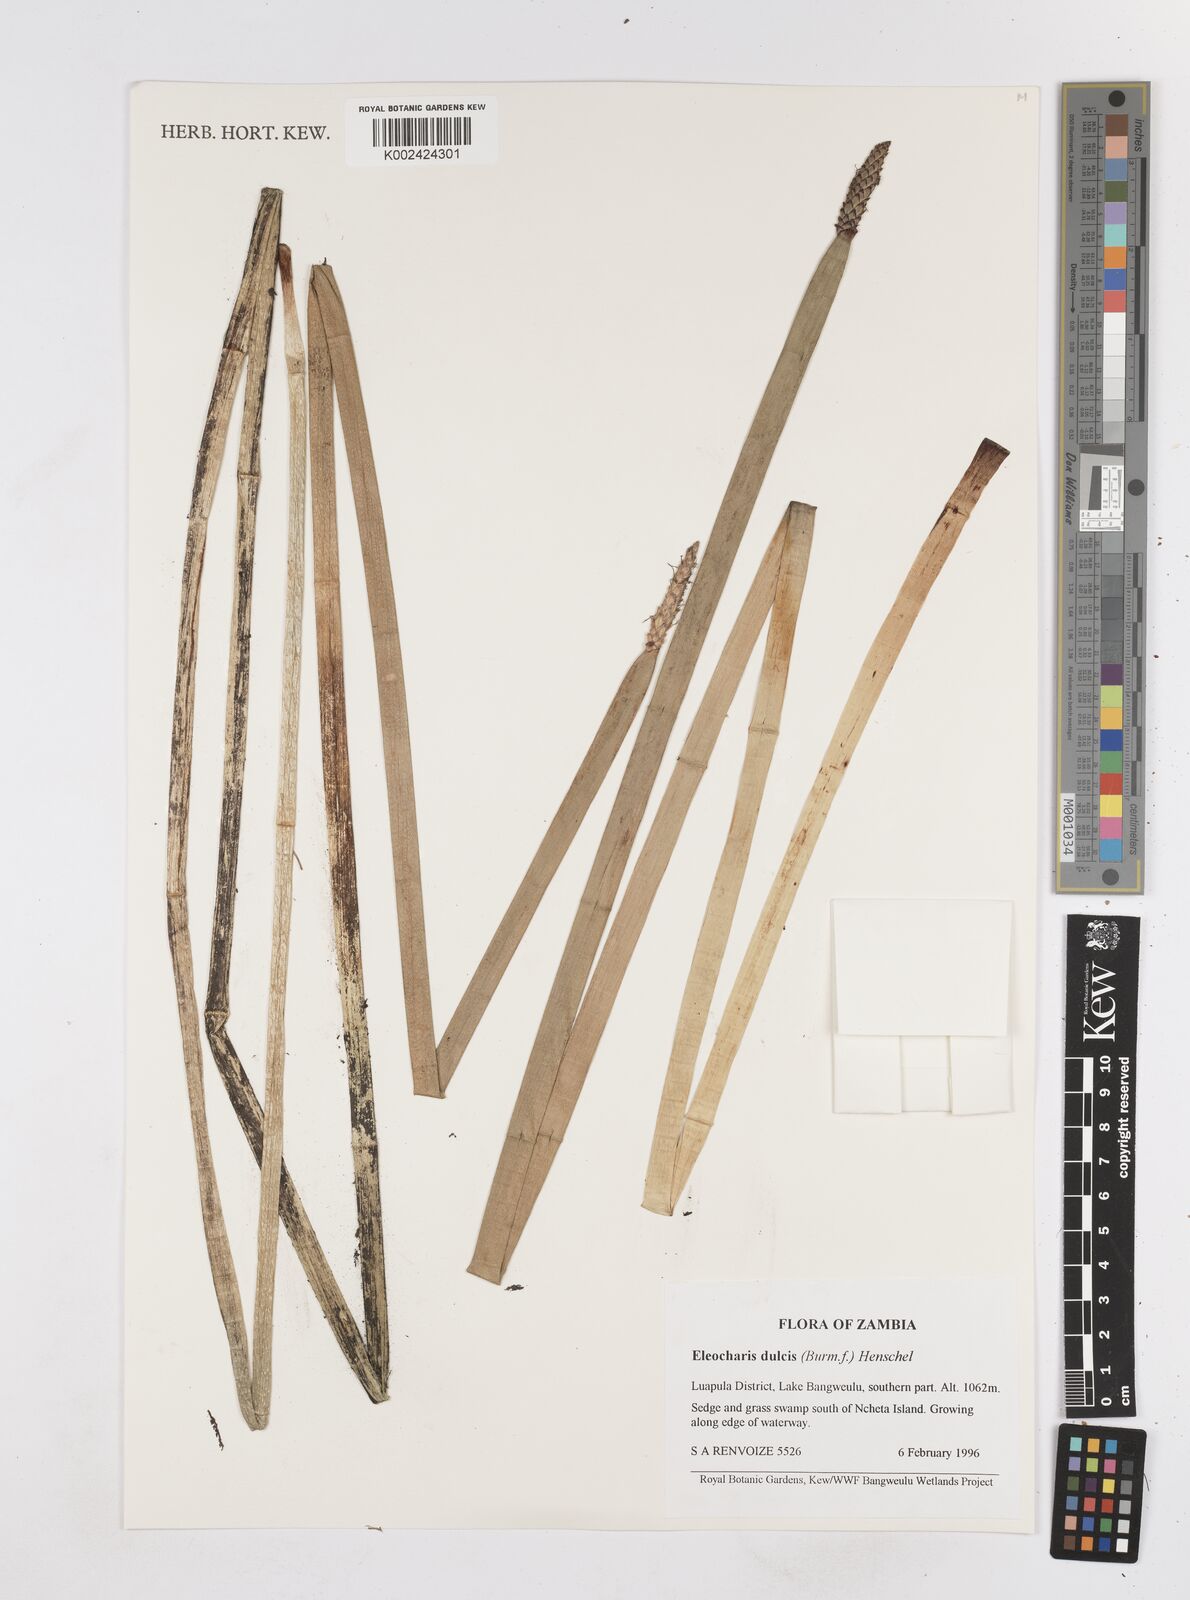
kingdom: Plantae
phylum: Tracheophyta
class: Liliopsida
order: Poales
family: Cyperaceae
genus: Eleocharis
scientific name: Eleocharis dulcis
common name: Chinese water chestnut
